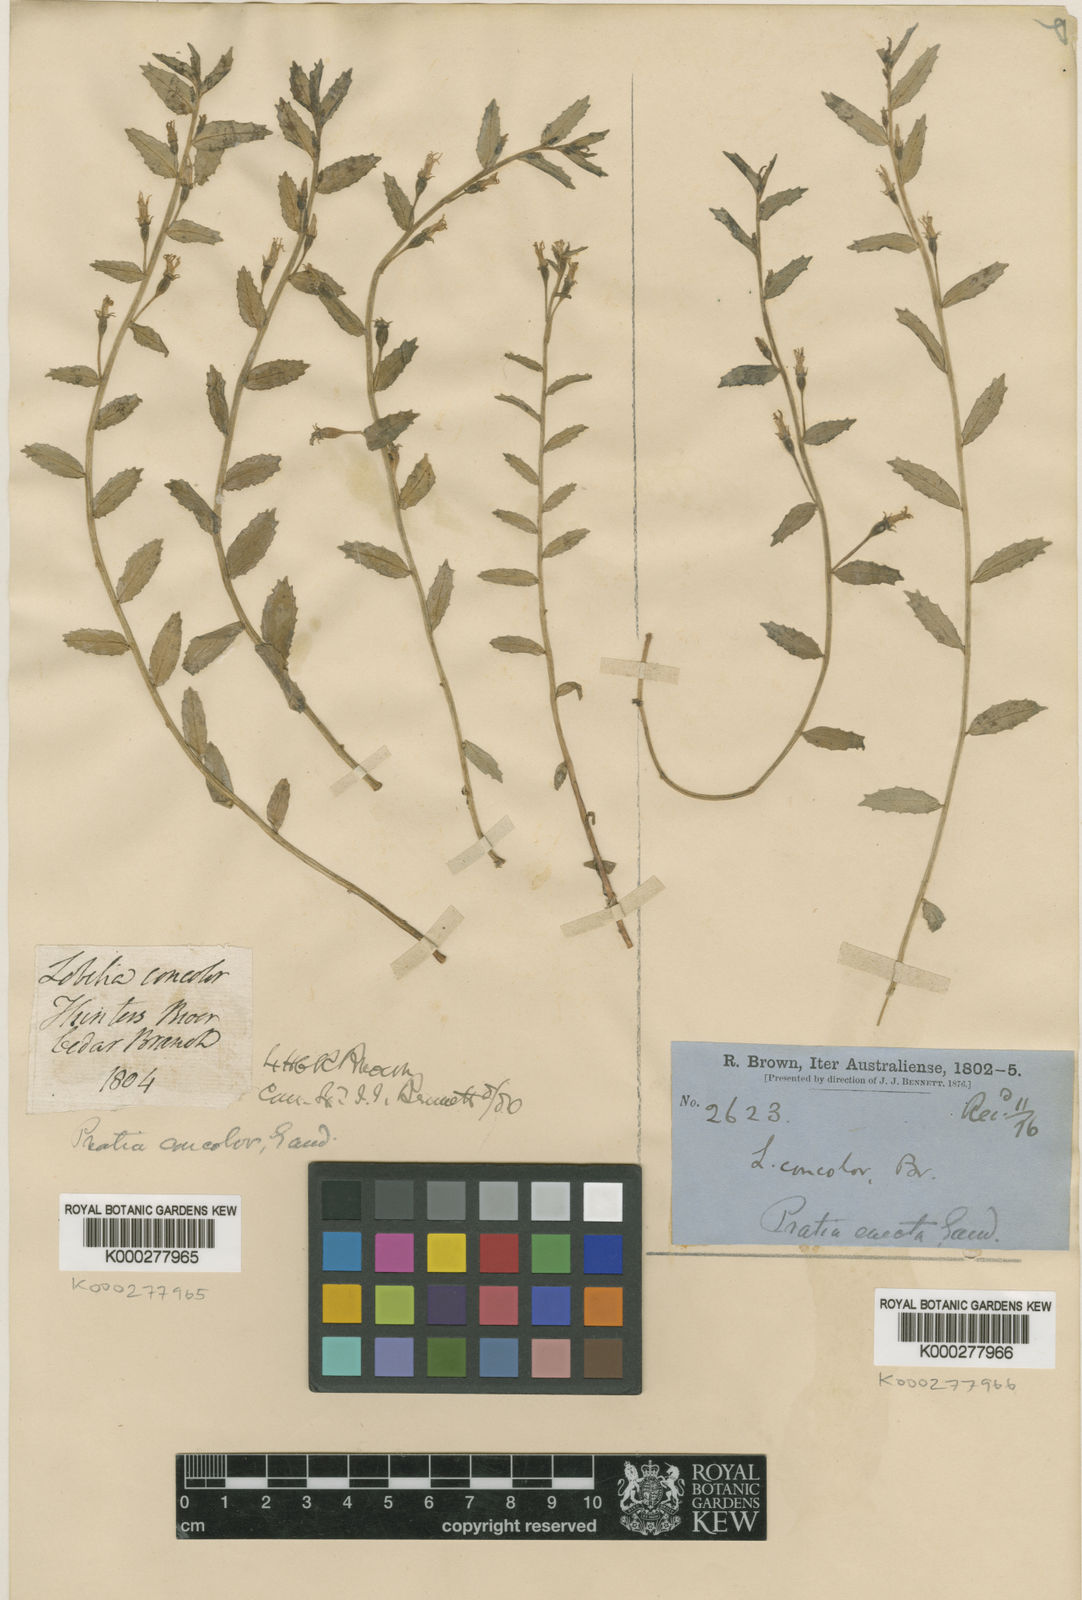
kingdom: Plantae
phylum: Tracheophyta
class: Magnoliopsida
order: Asterales
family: Campanulaceae
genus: Lobelia
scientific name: Lobelia concolor
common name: Poison pratia
